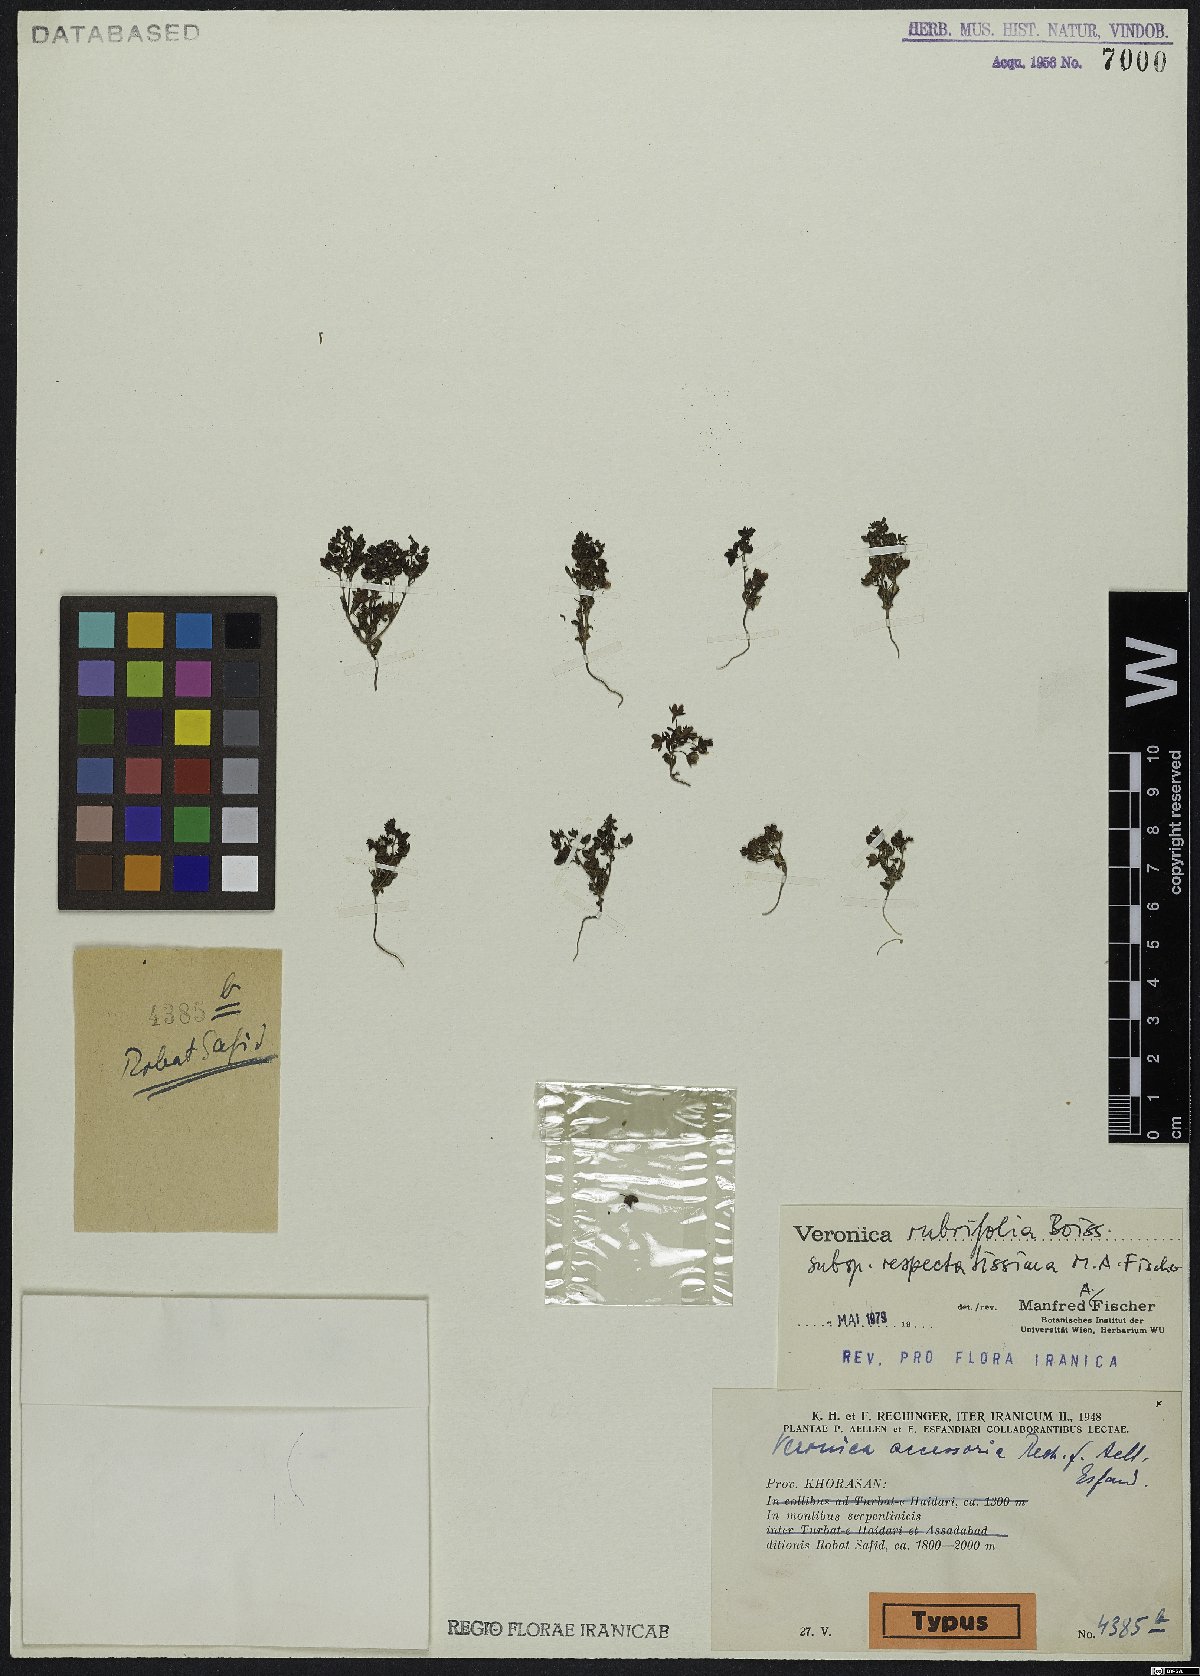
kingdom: Plantae
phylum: Tracheophyta
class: Magnoliopsida
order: Lamiales
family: Plantaginaceae
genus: Veronica
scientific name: Veronica rubrifolia
